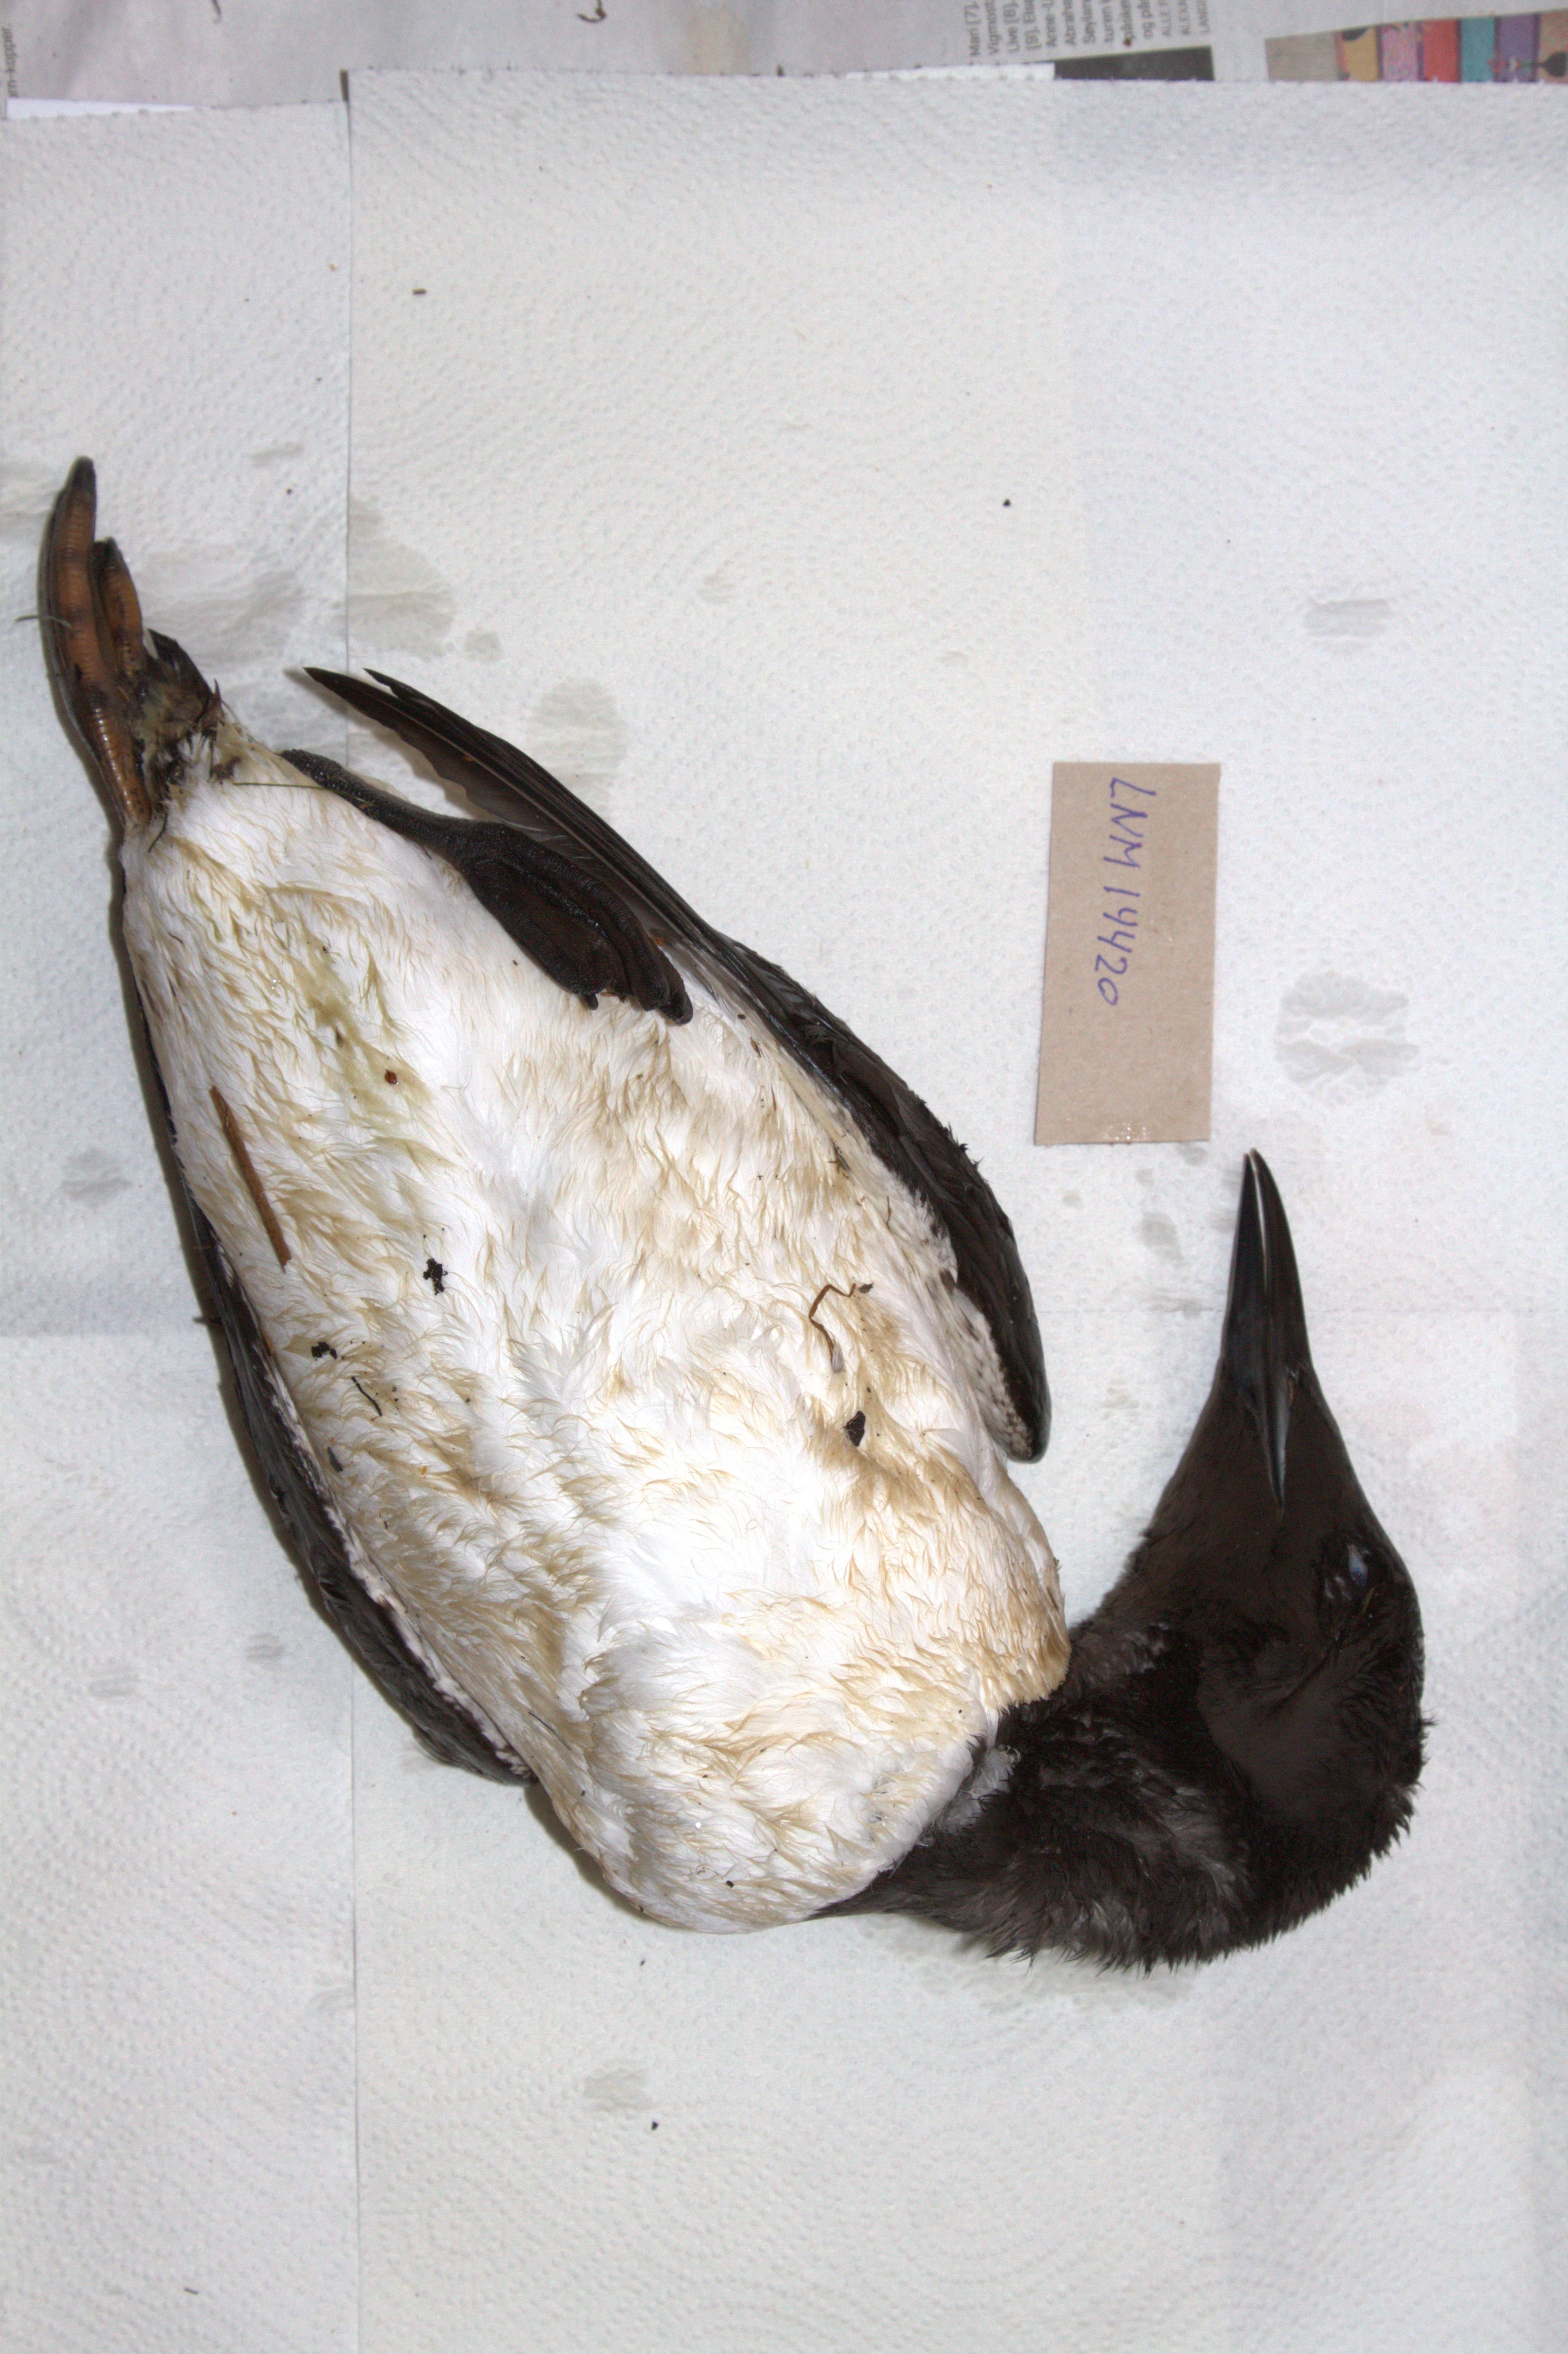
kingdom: Animalia
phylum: Chordata
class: Aves
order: Charadriiformes
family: Alcidae
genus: Uria
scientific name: Uria aalge
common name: Common murre
